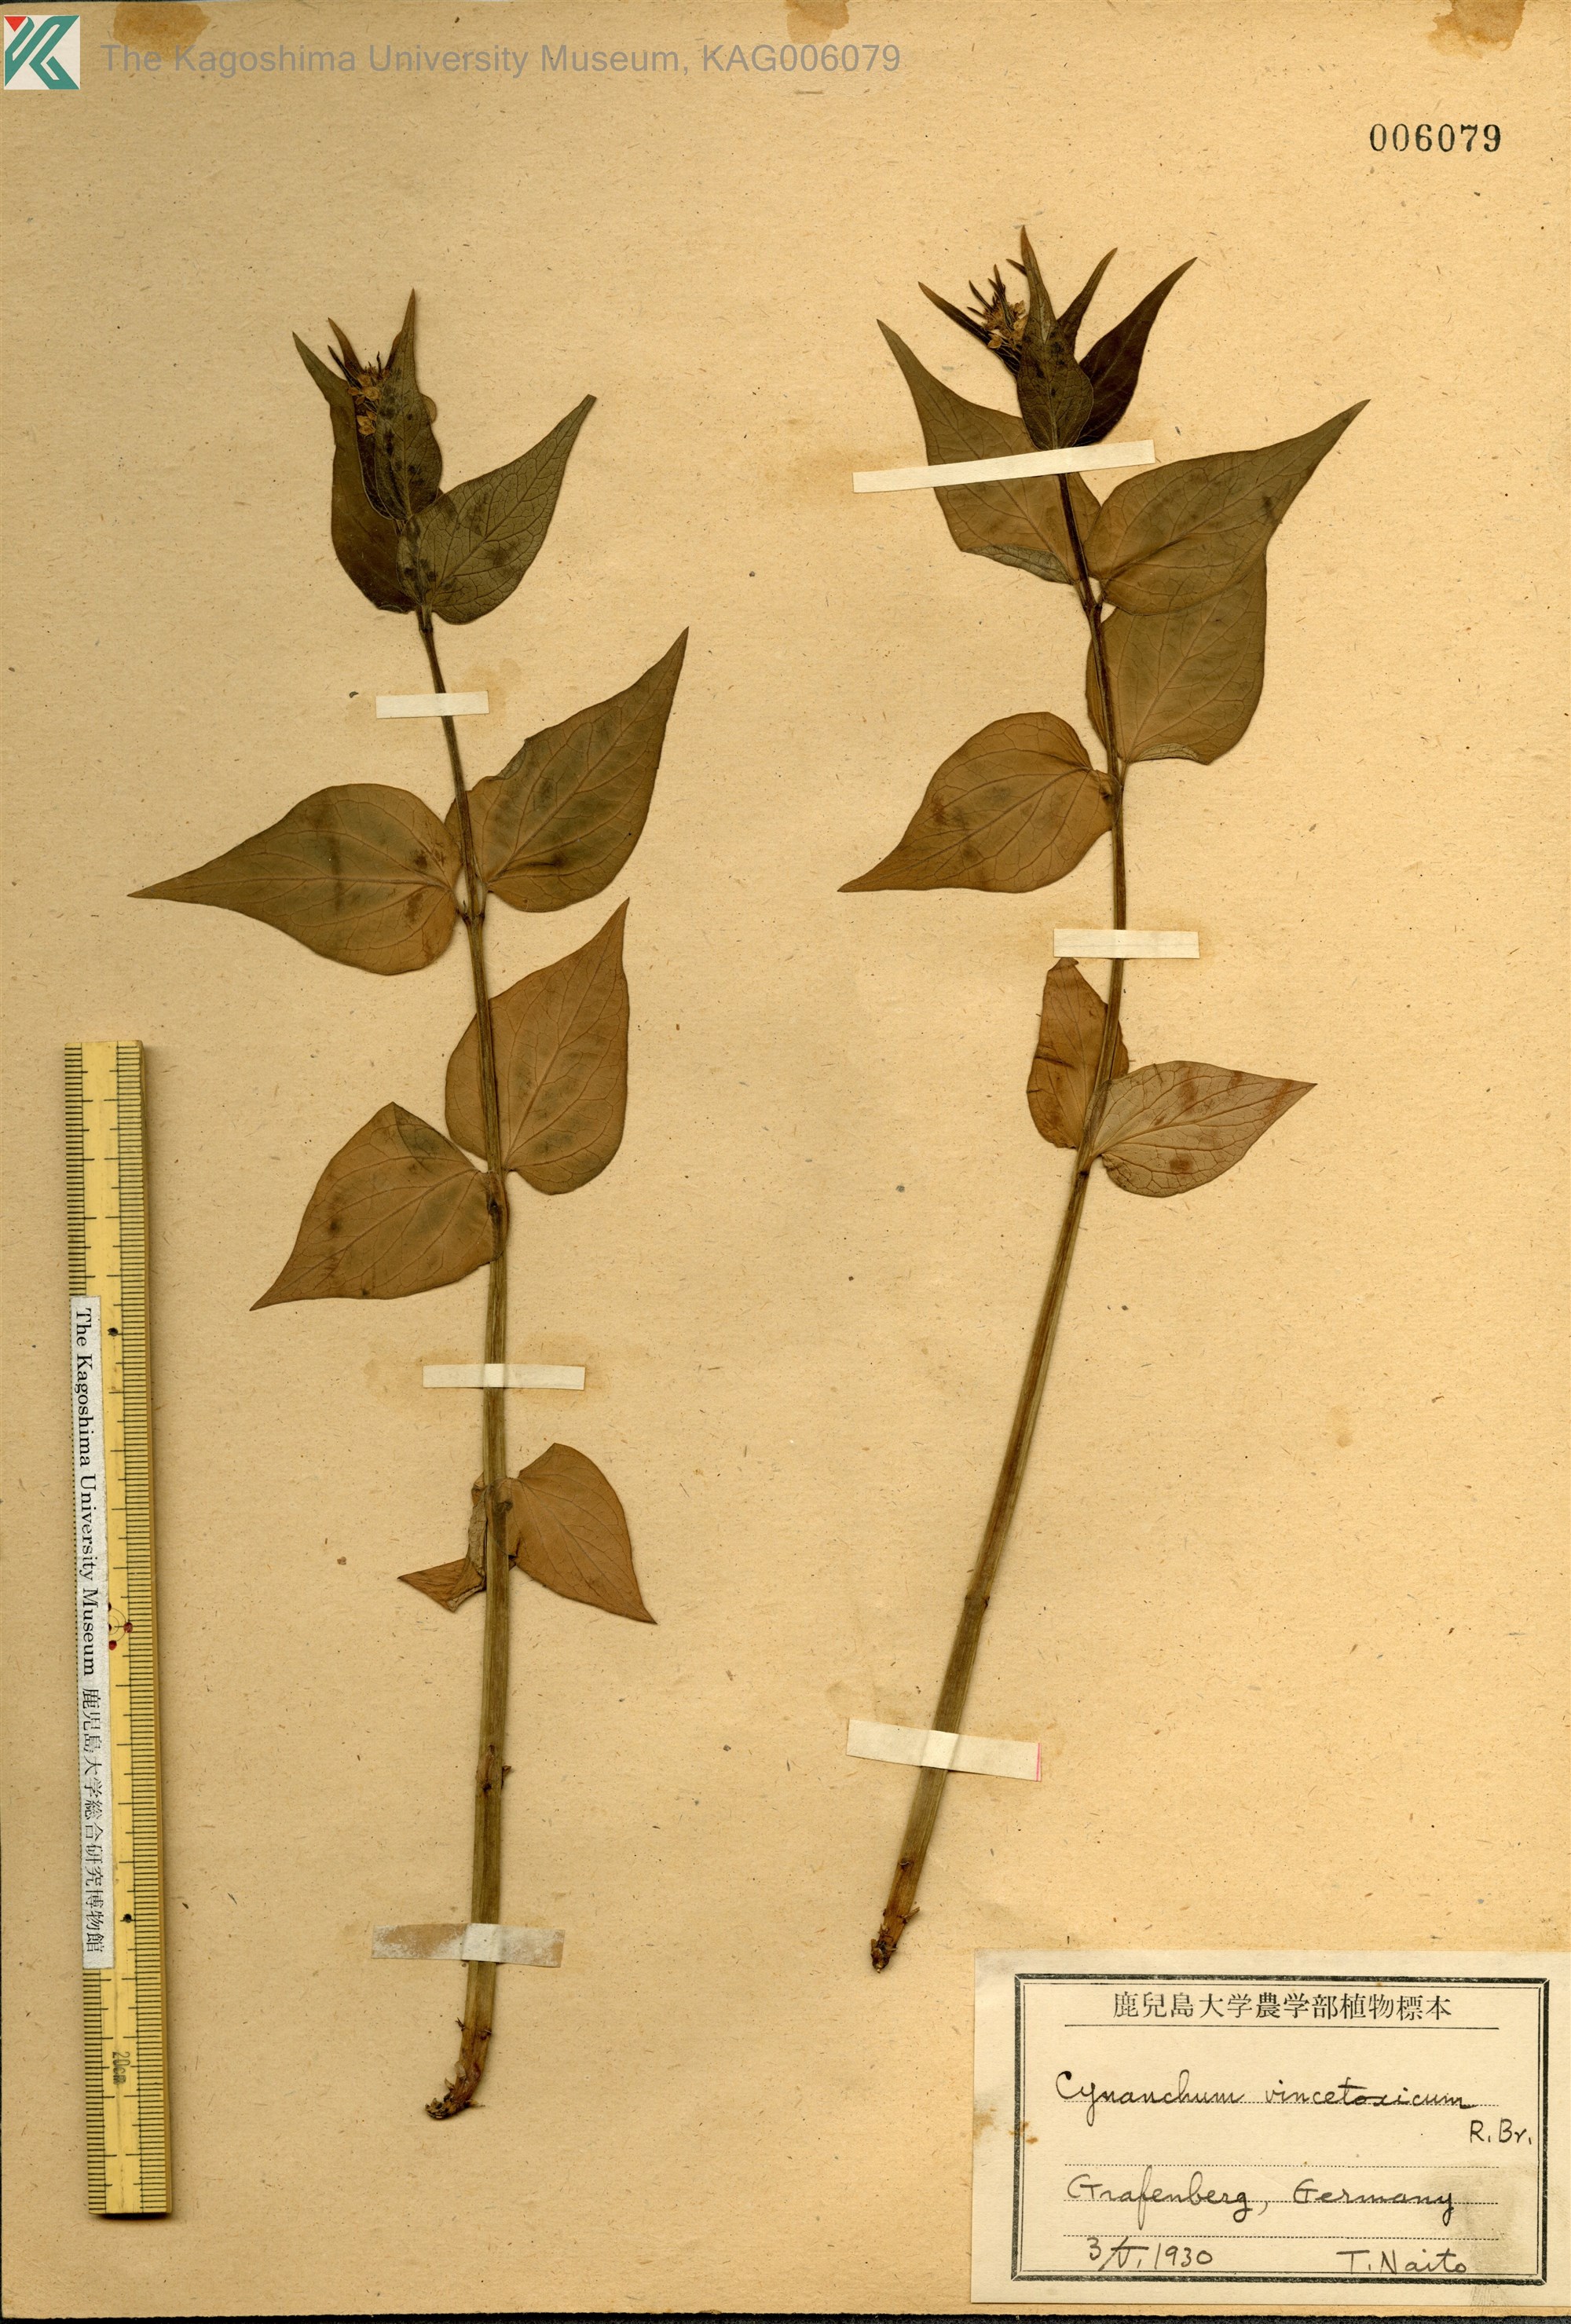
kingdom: Plantae
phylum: Tracheophyta
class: Magnoliopsida
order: Gentianales
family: Apocynaceae
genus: Vincetoxicum
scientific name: Vincetoxicum hirundinaria
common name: White swallowwort
